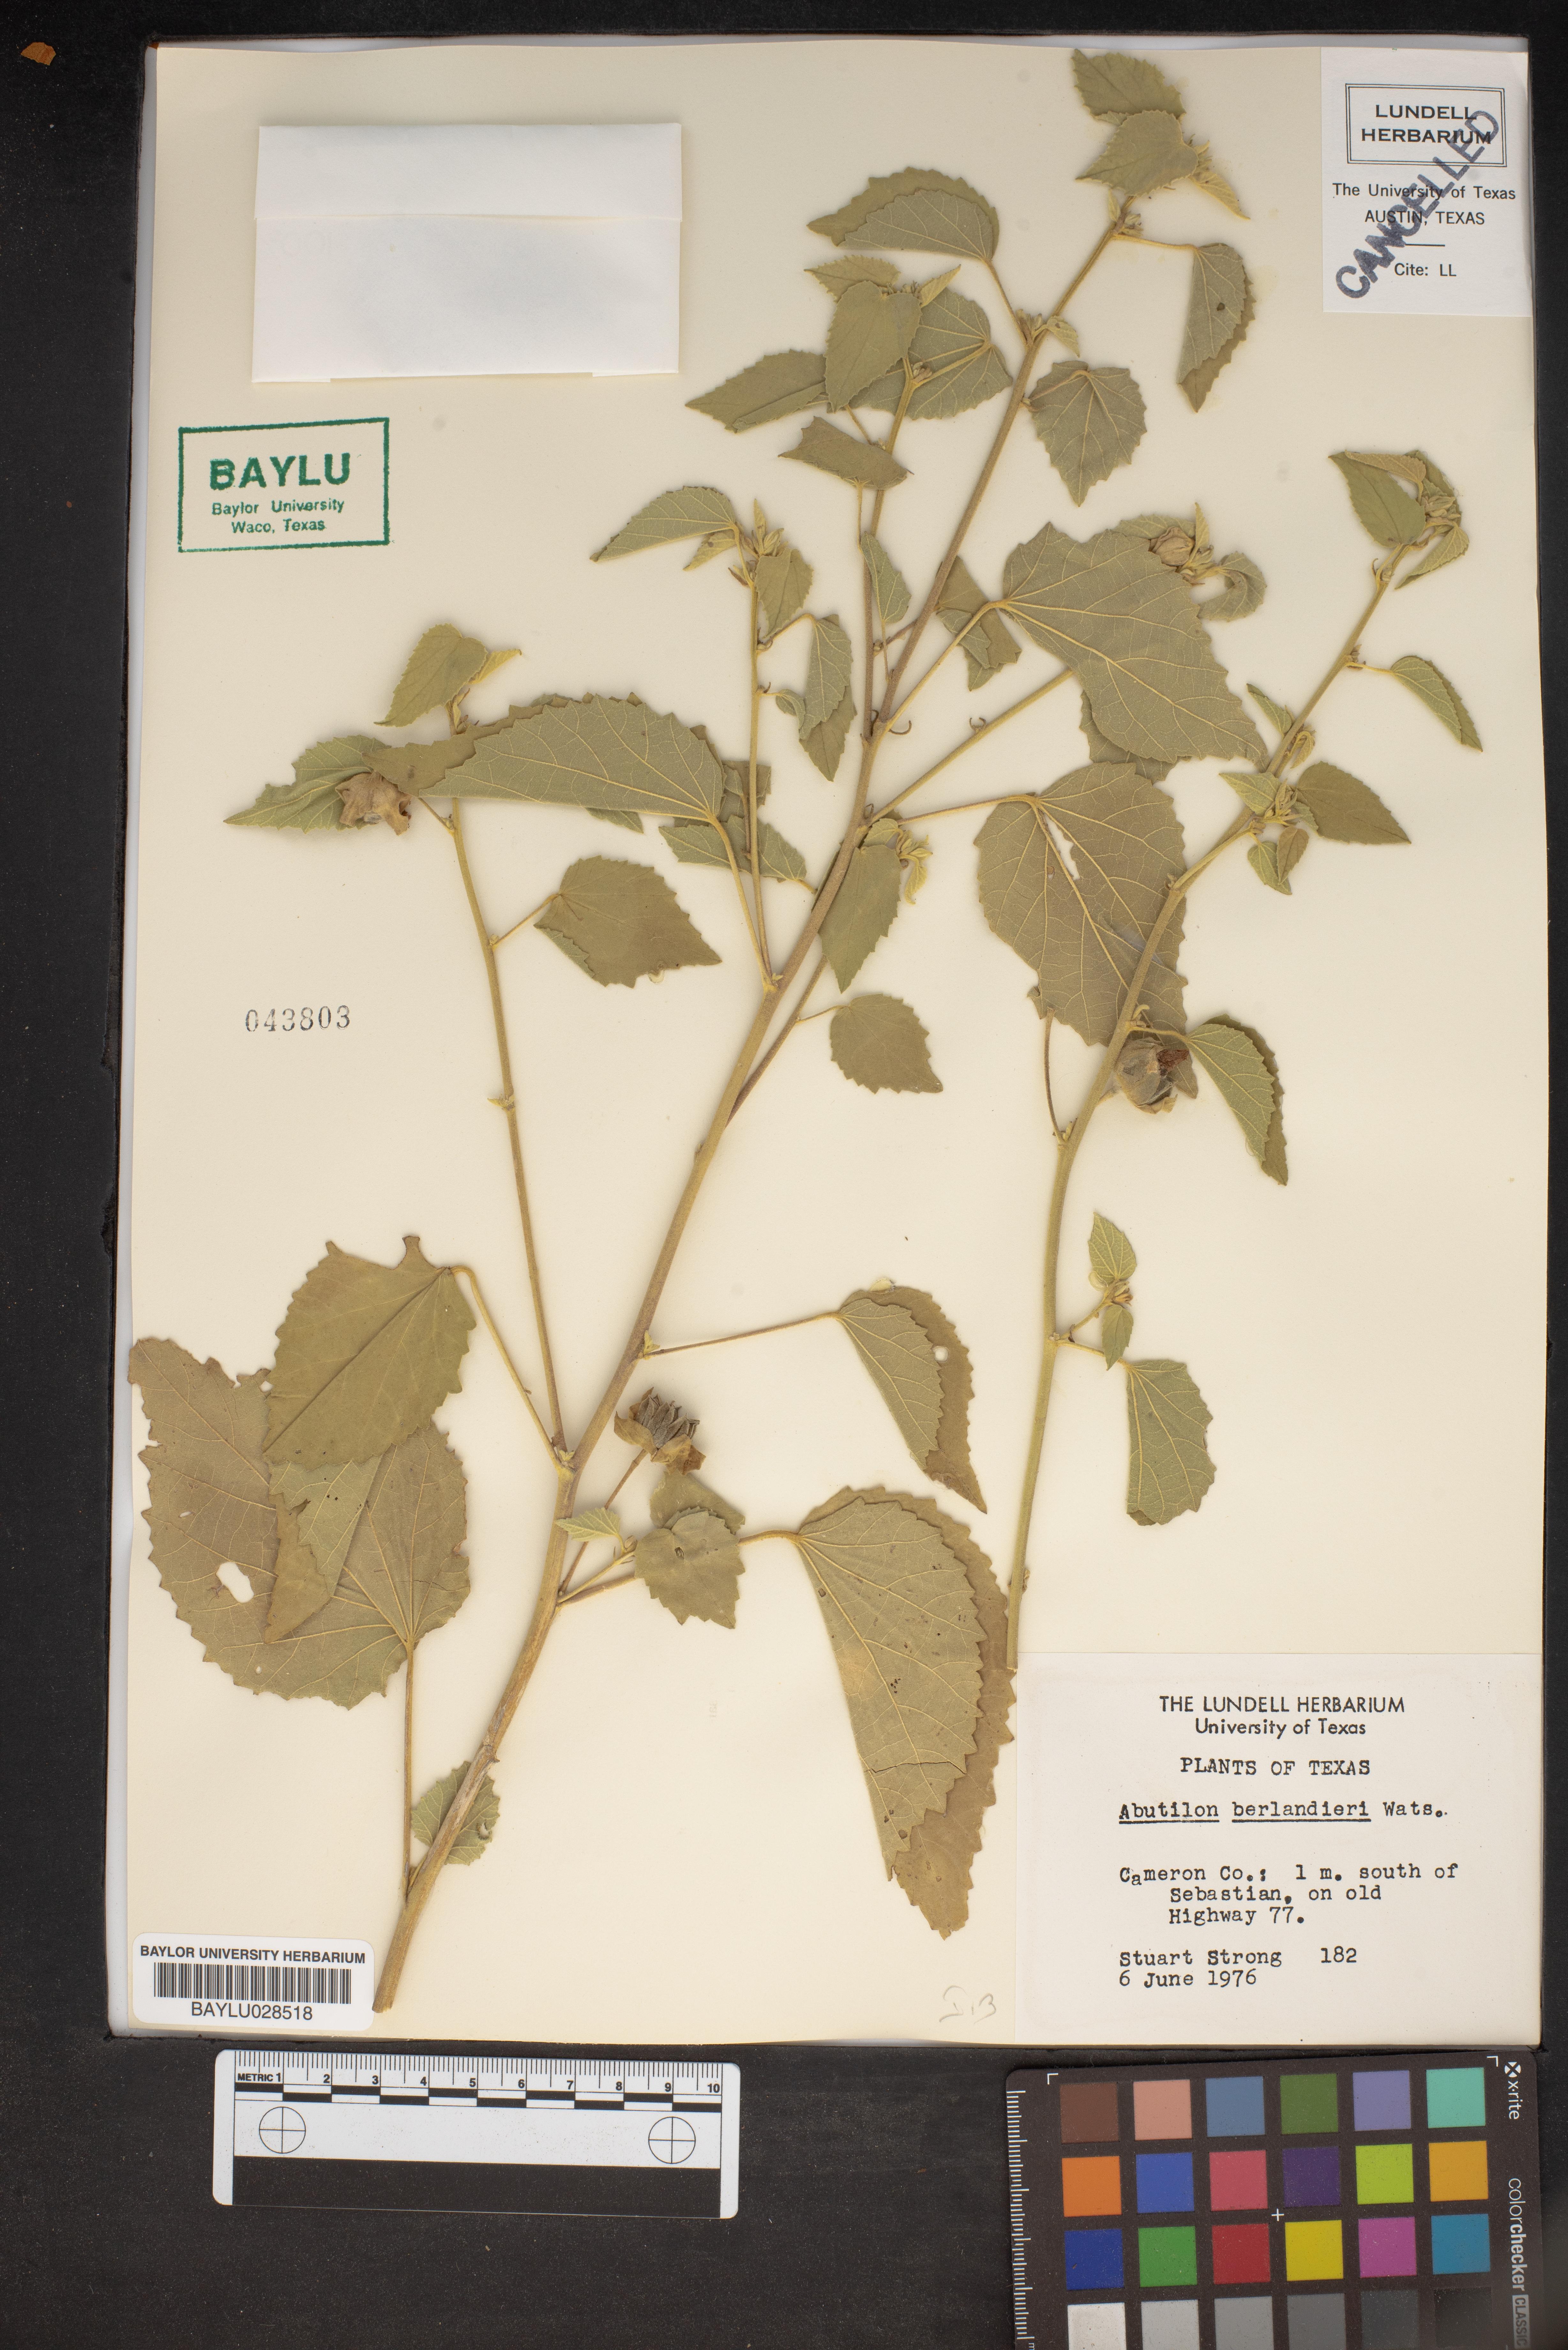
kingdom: Plantae
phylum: Tracheophyta
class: Magnoliopsida
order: Malvales
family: Malvaceae
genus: Abutilon
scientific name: Abutilon berlandieri
